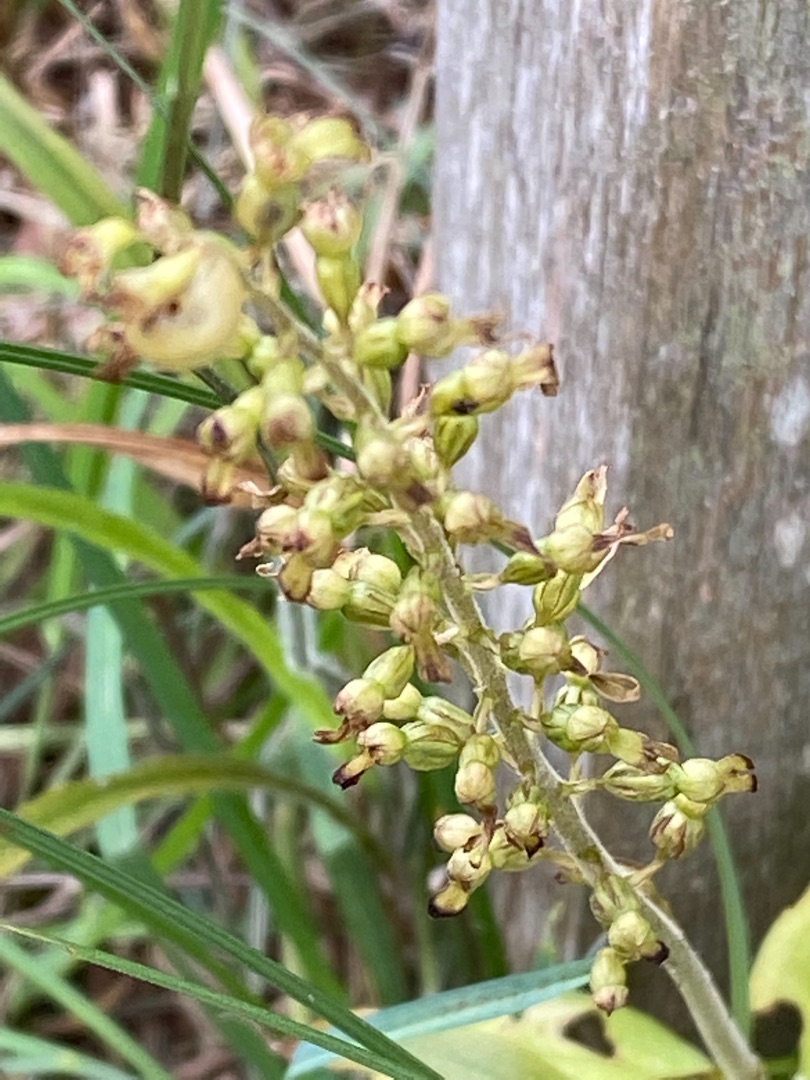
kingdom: Plantae
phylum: Tracheophyta
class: Liliopsida
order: Asparagales
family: Orchidaceae
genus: Neottia
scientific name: Neottia ovata
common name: Ægbladet fliglæbe
